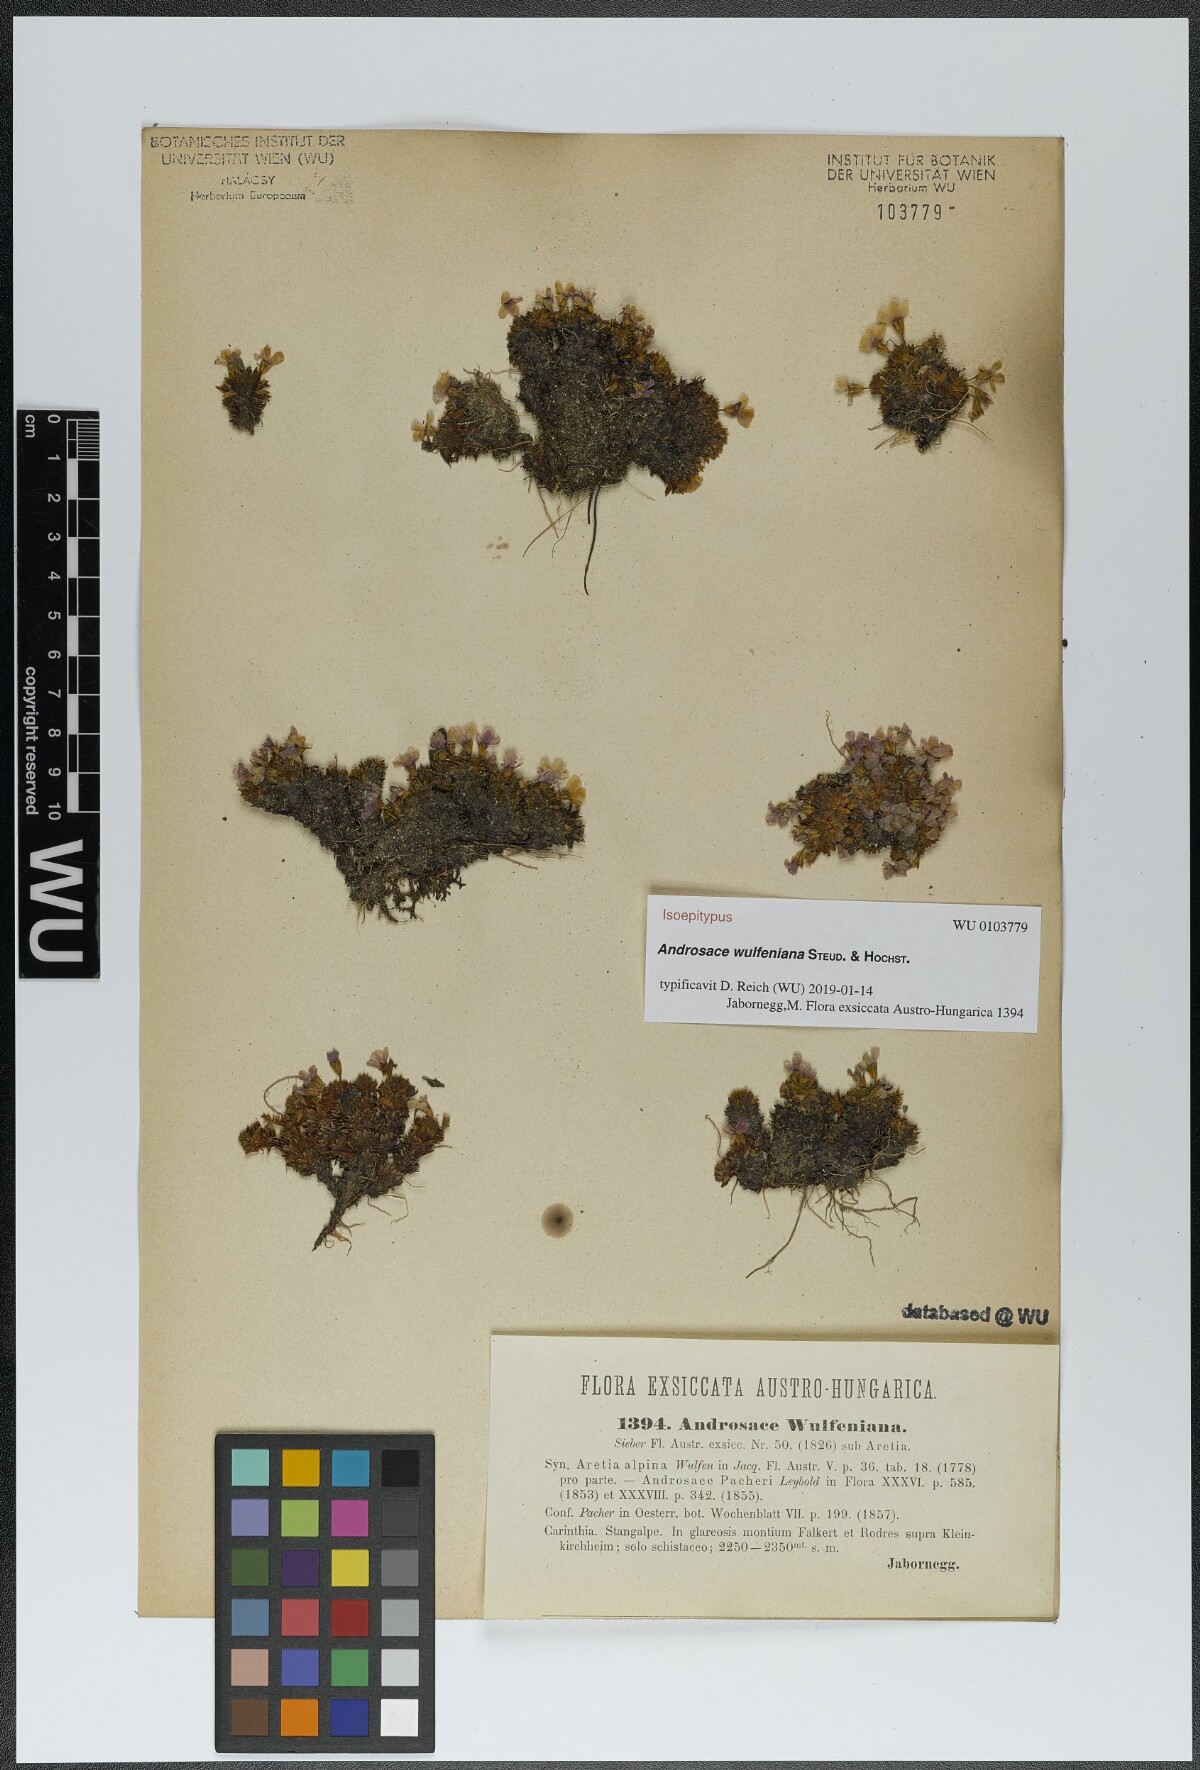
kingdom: Plantae
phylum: Tracheophyta
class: Magnoliopsida
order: Ericales
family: Primulaceae
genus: Androsace
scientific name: Androsace wulfeniana
